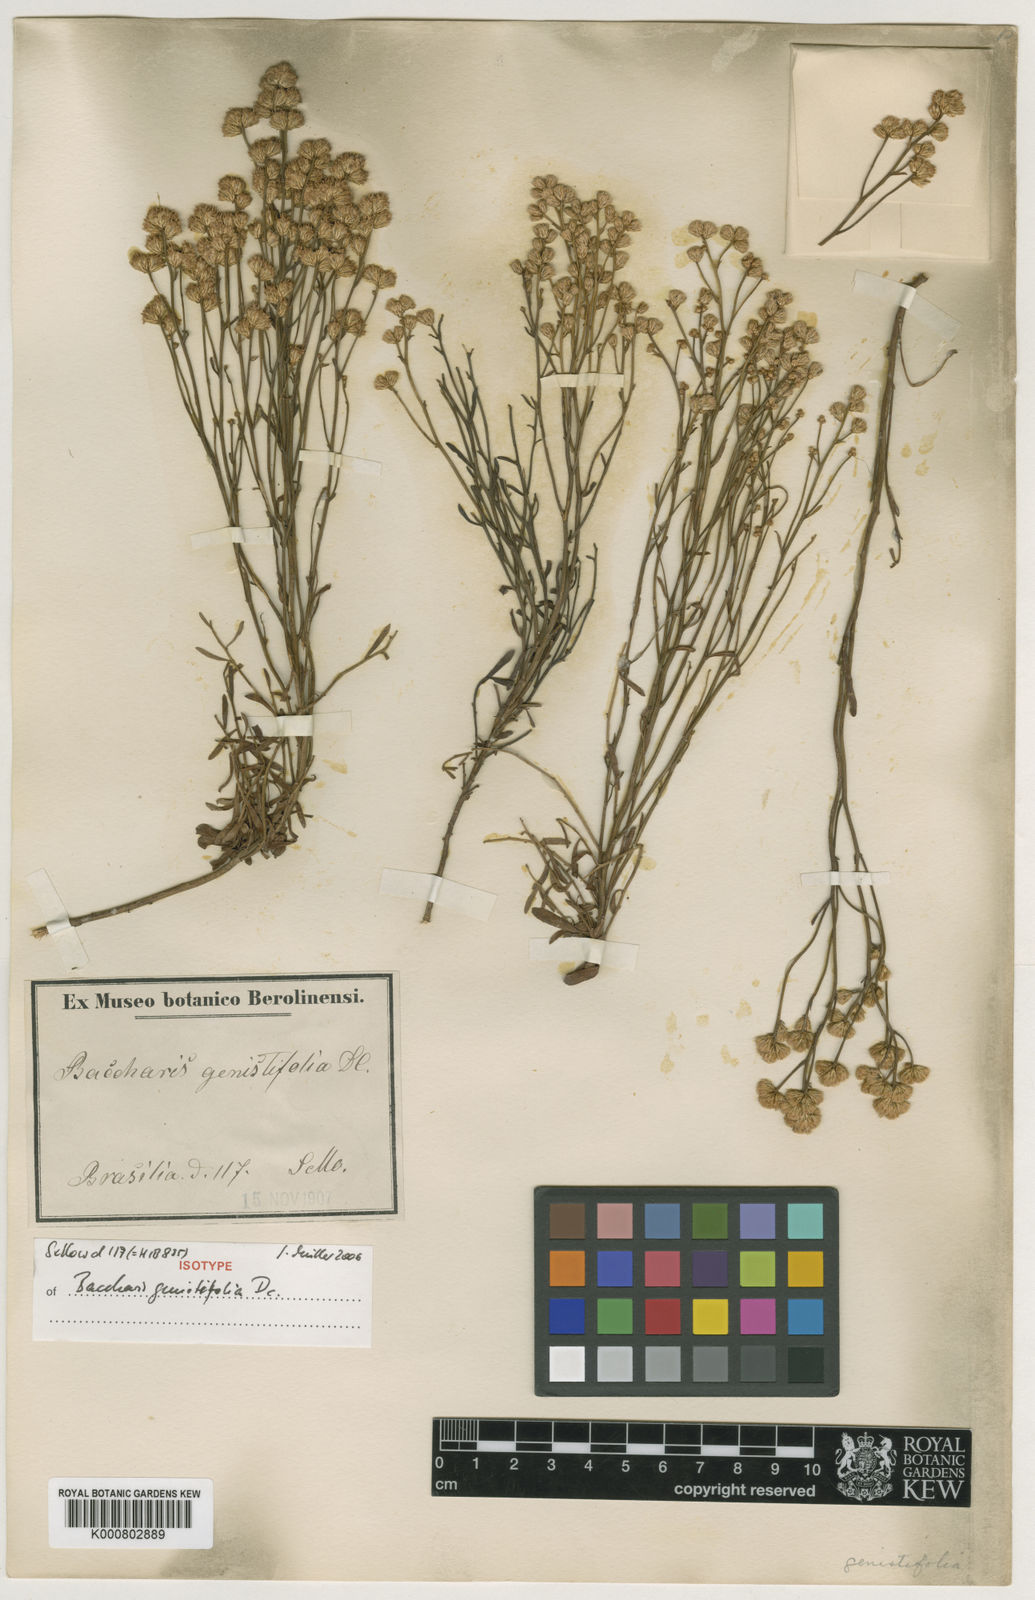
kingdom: Plantae
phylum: Tracheophyta
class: Magnoliopsida
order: Asterales
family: Asteraceae
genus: Baccharis
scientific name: Baccharis genistifolia
